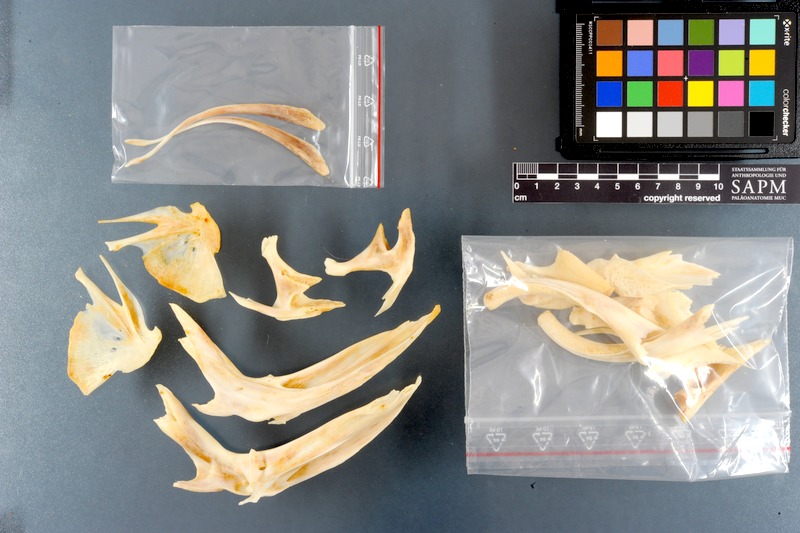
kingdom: Animalia
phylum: Chordata
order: Siluriformes
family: Pimelodidae
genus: Pseudoplatystoma
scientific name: Pseudoplatystoma fasciatum
